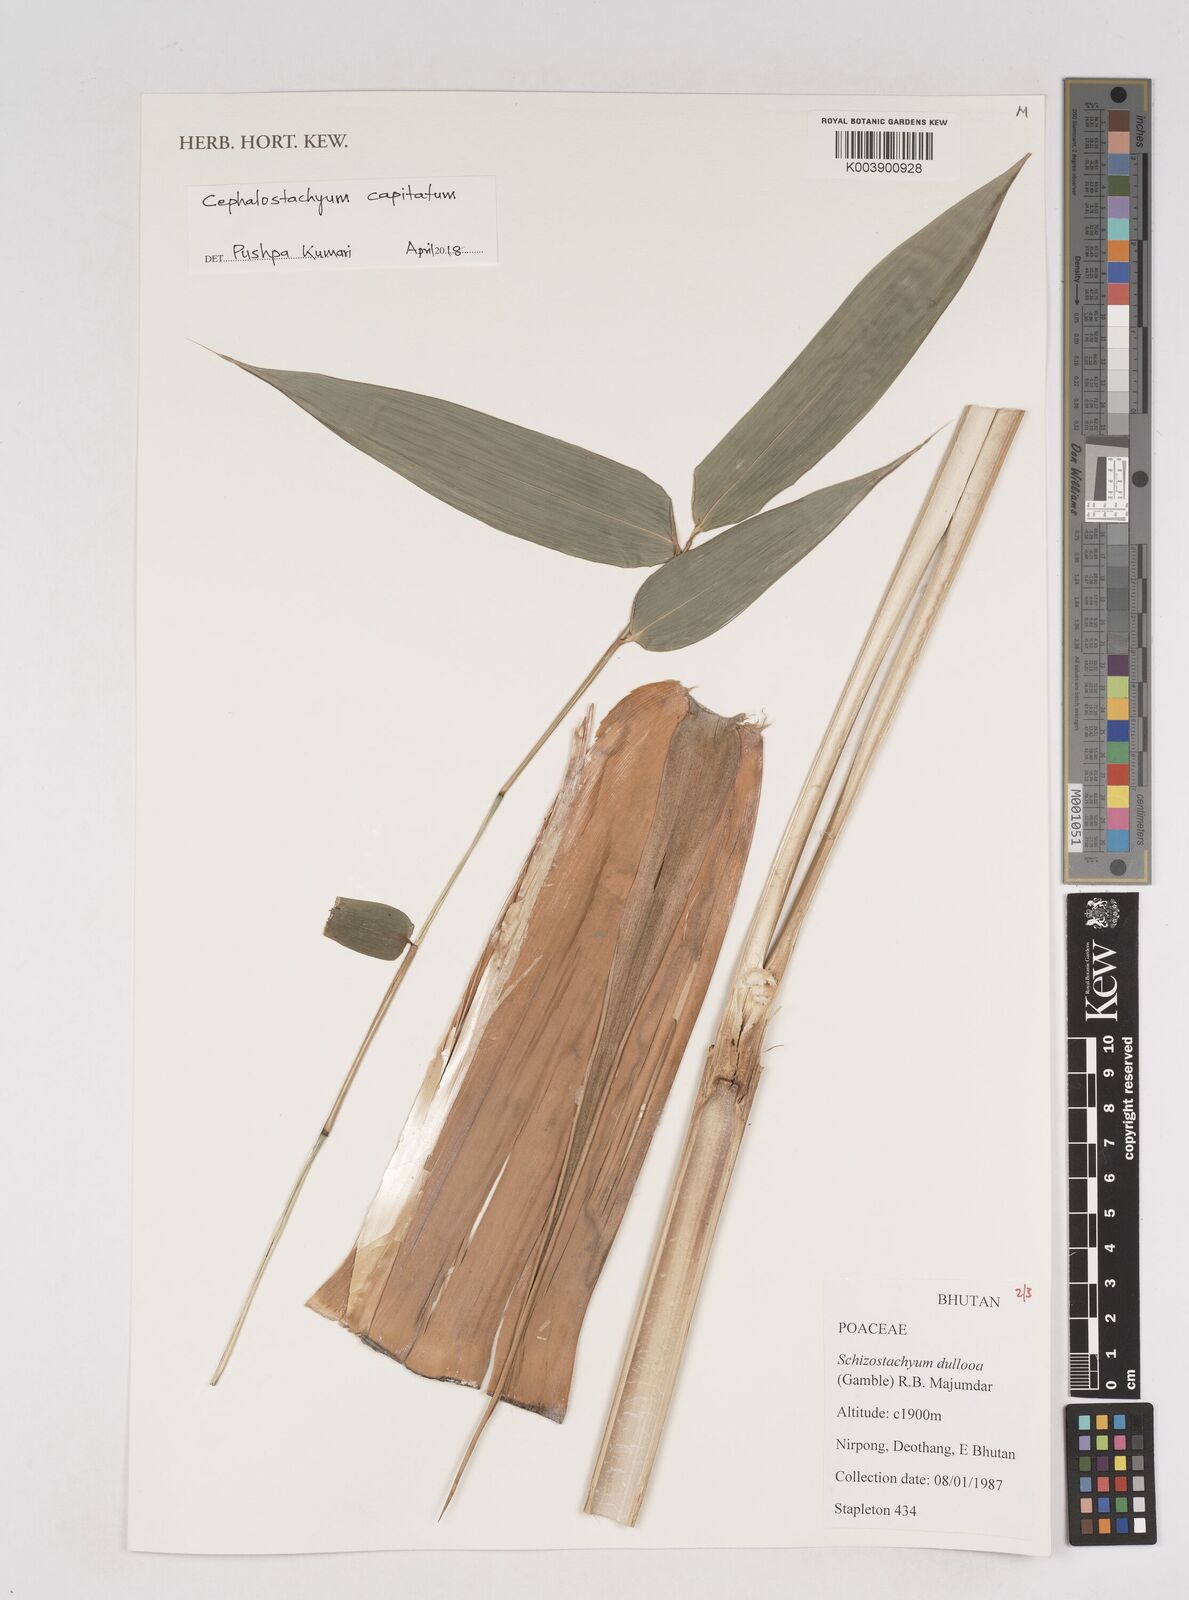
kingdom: Plantae
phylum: Tracheophyta
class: Liliopsida
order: Poales
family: Poaceae
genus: Cephalostachyum
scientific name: Cephalostachyum capitatum
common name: Hollow bamboo
